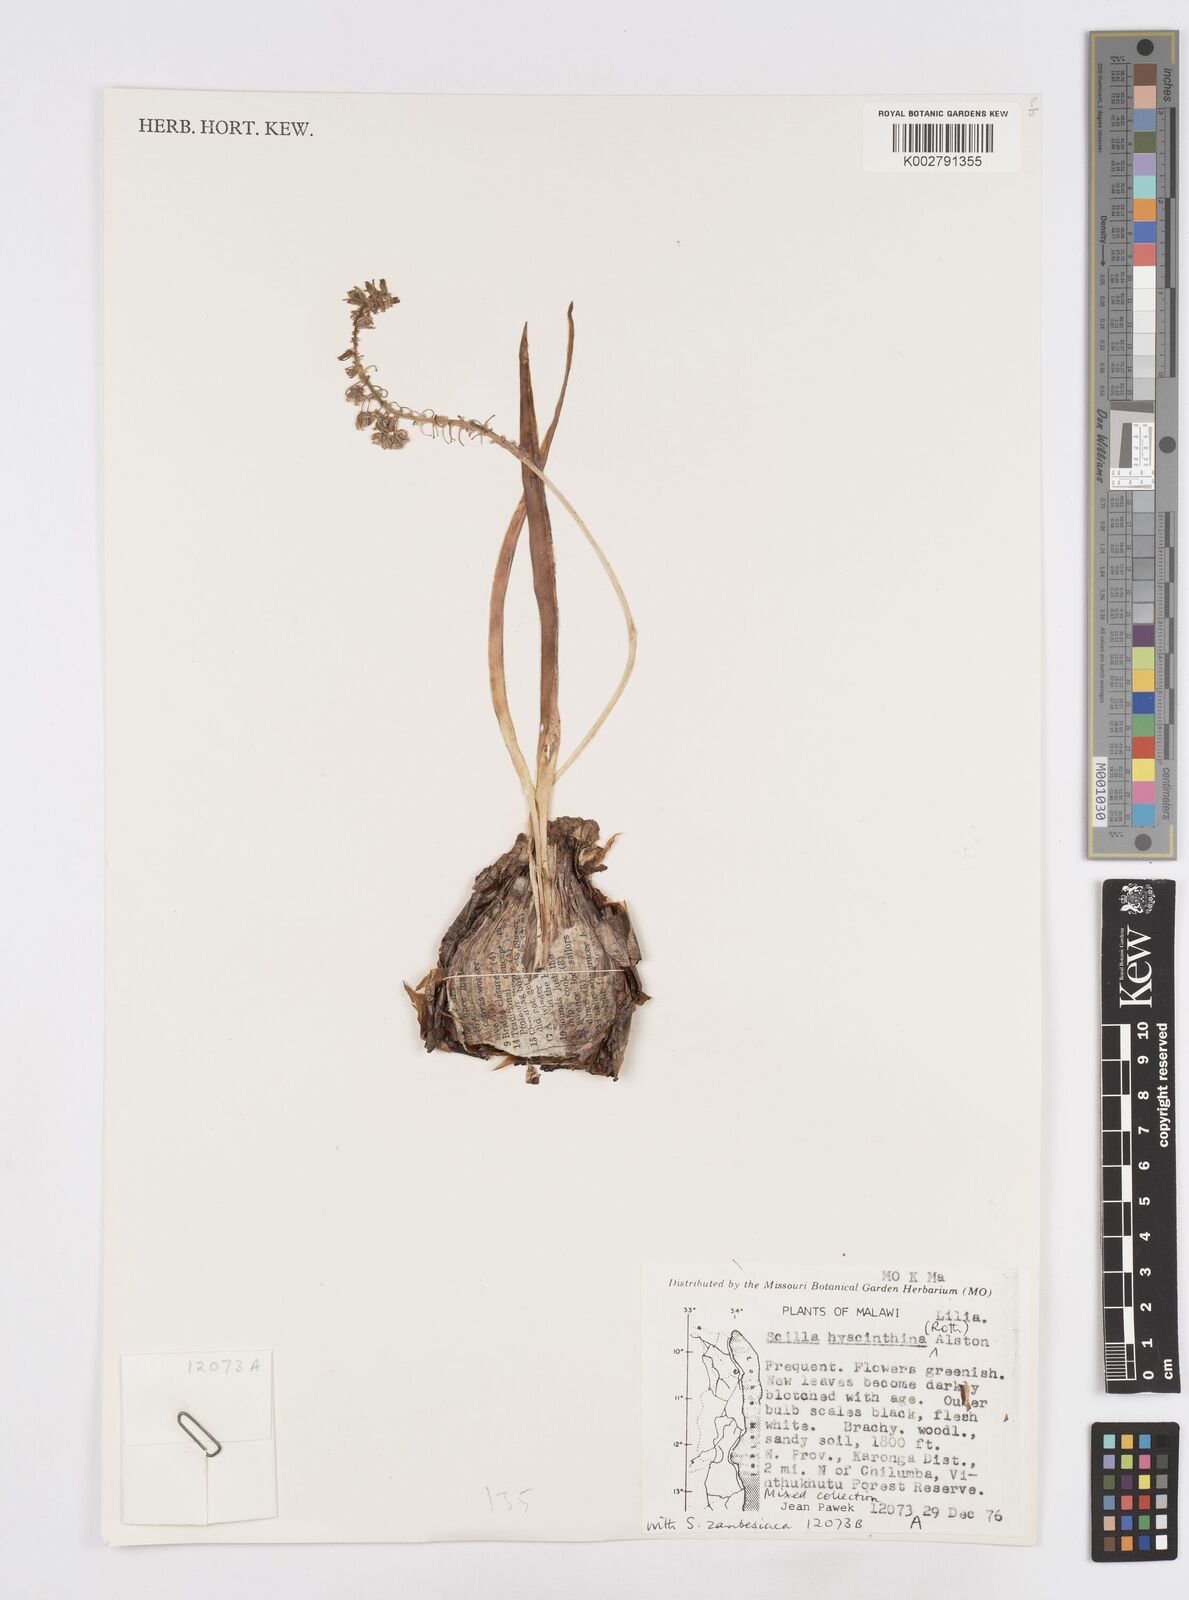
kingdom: Plantae
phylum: Tracheophyta
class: Liliopsida
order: Asparagales
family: Asparagaceae
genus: Ledebouria
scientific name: Ledebouria revoluta
